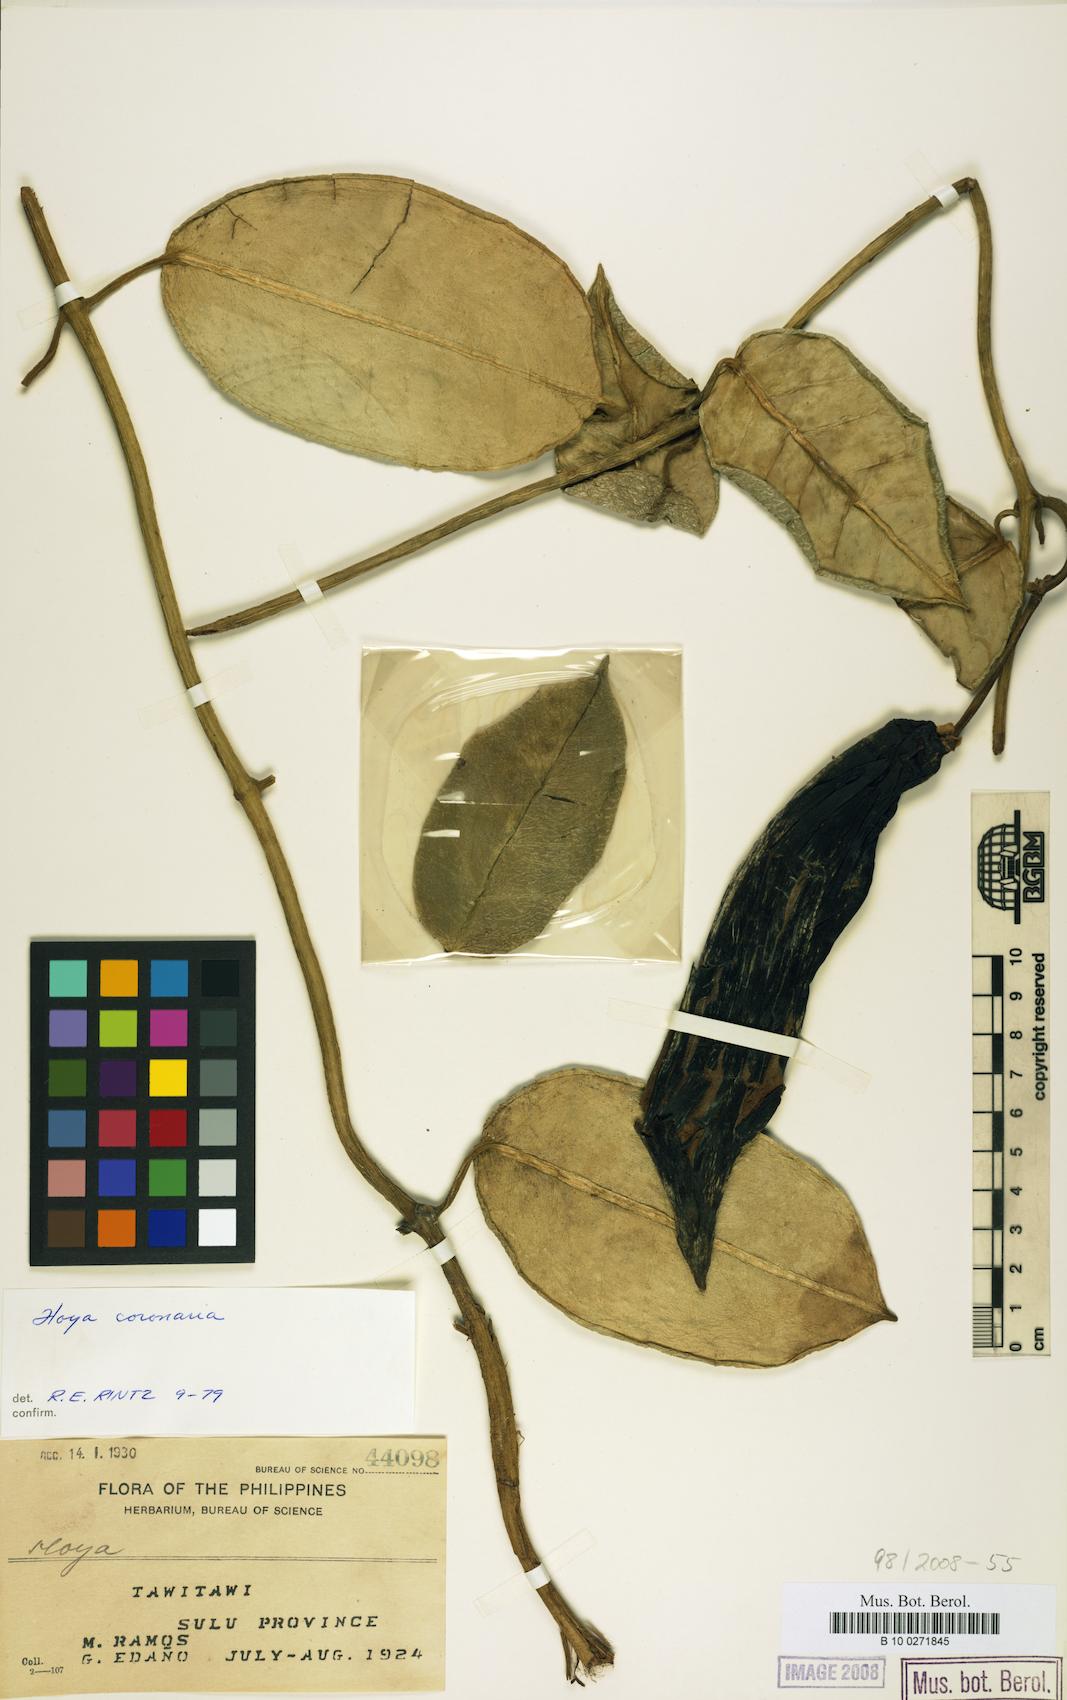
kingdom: Plantae
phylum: Tracheophyta
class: Magnoliopsida
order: Gentianales
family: Apocynaceae
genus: Eriostemma
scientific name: Eriostemma coronaria
